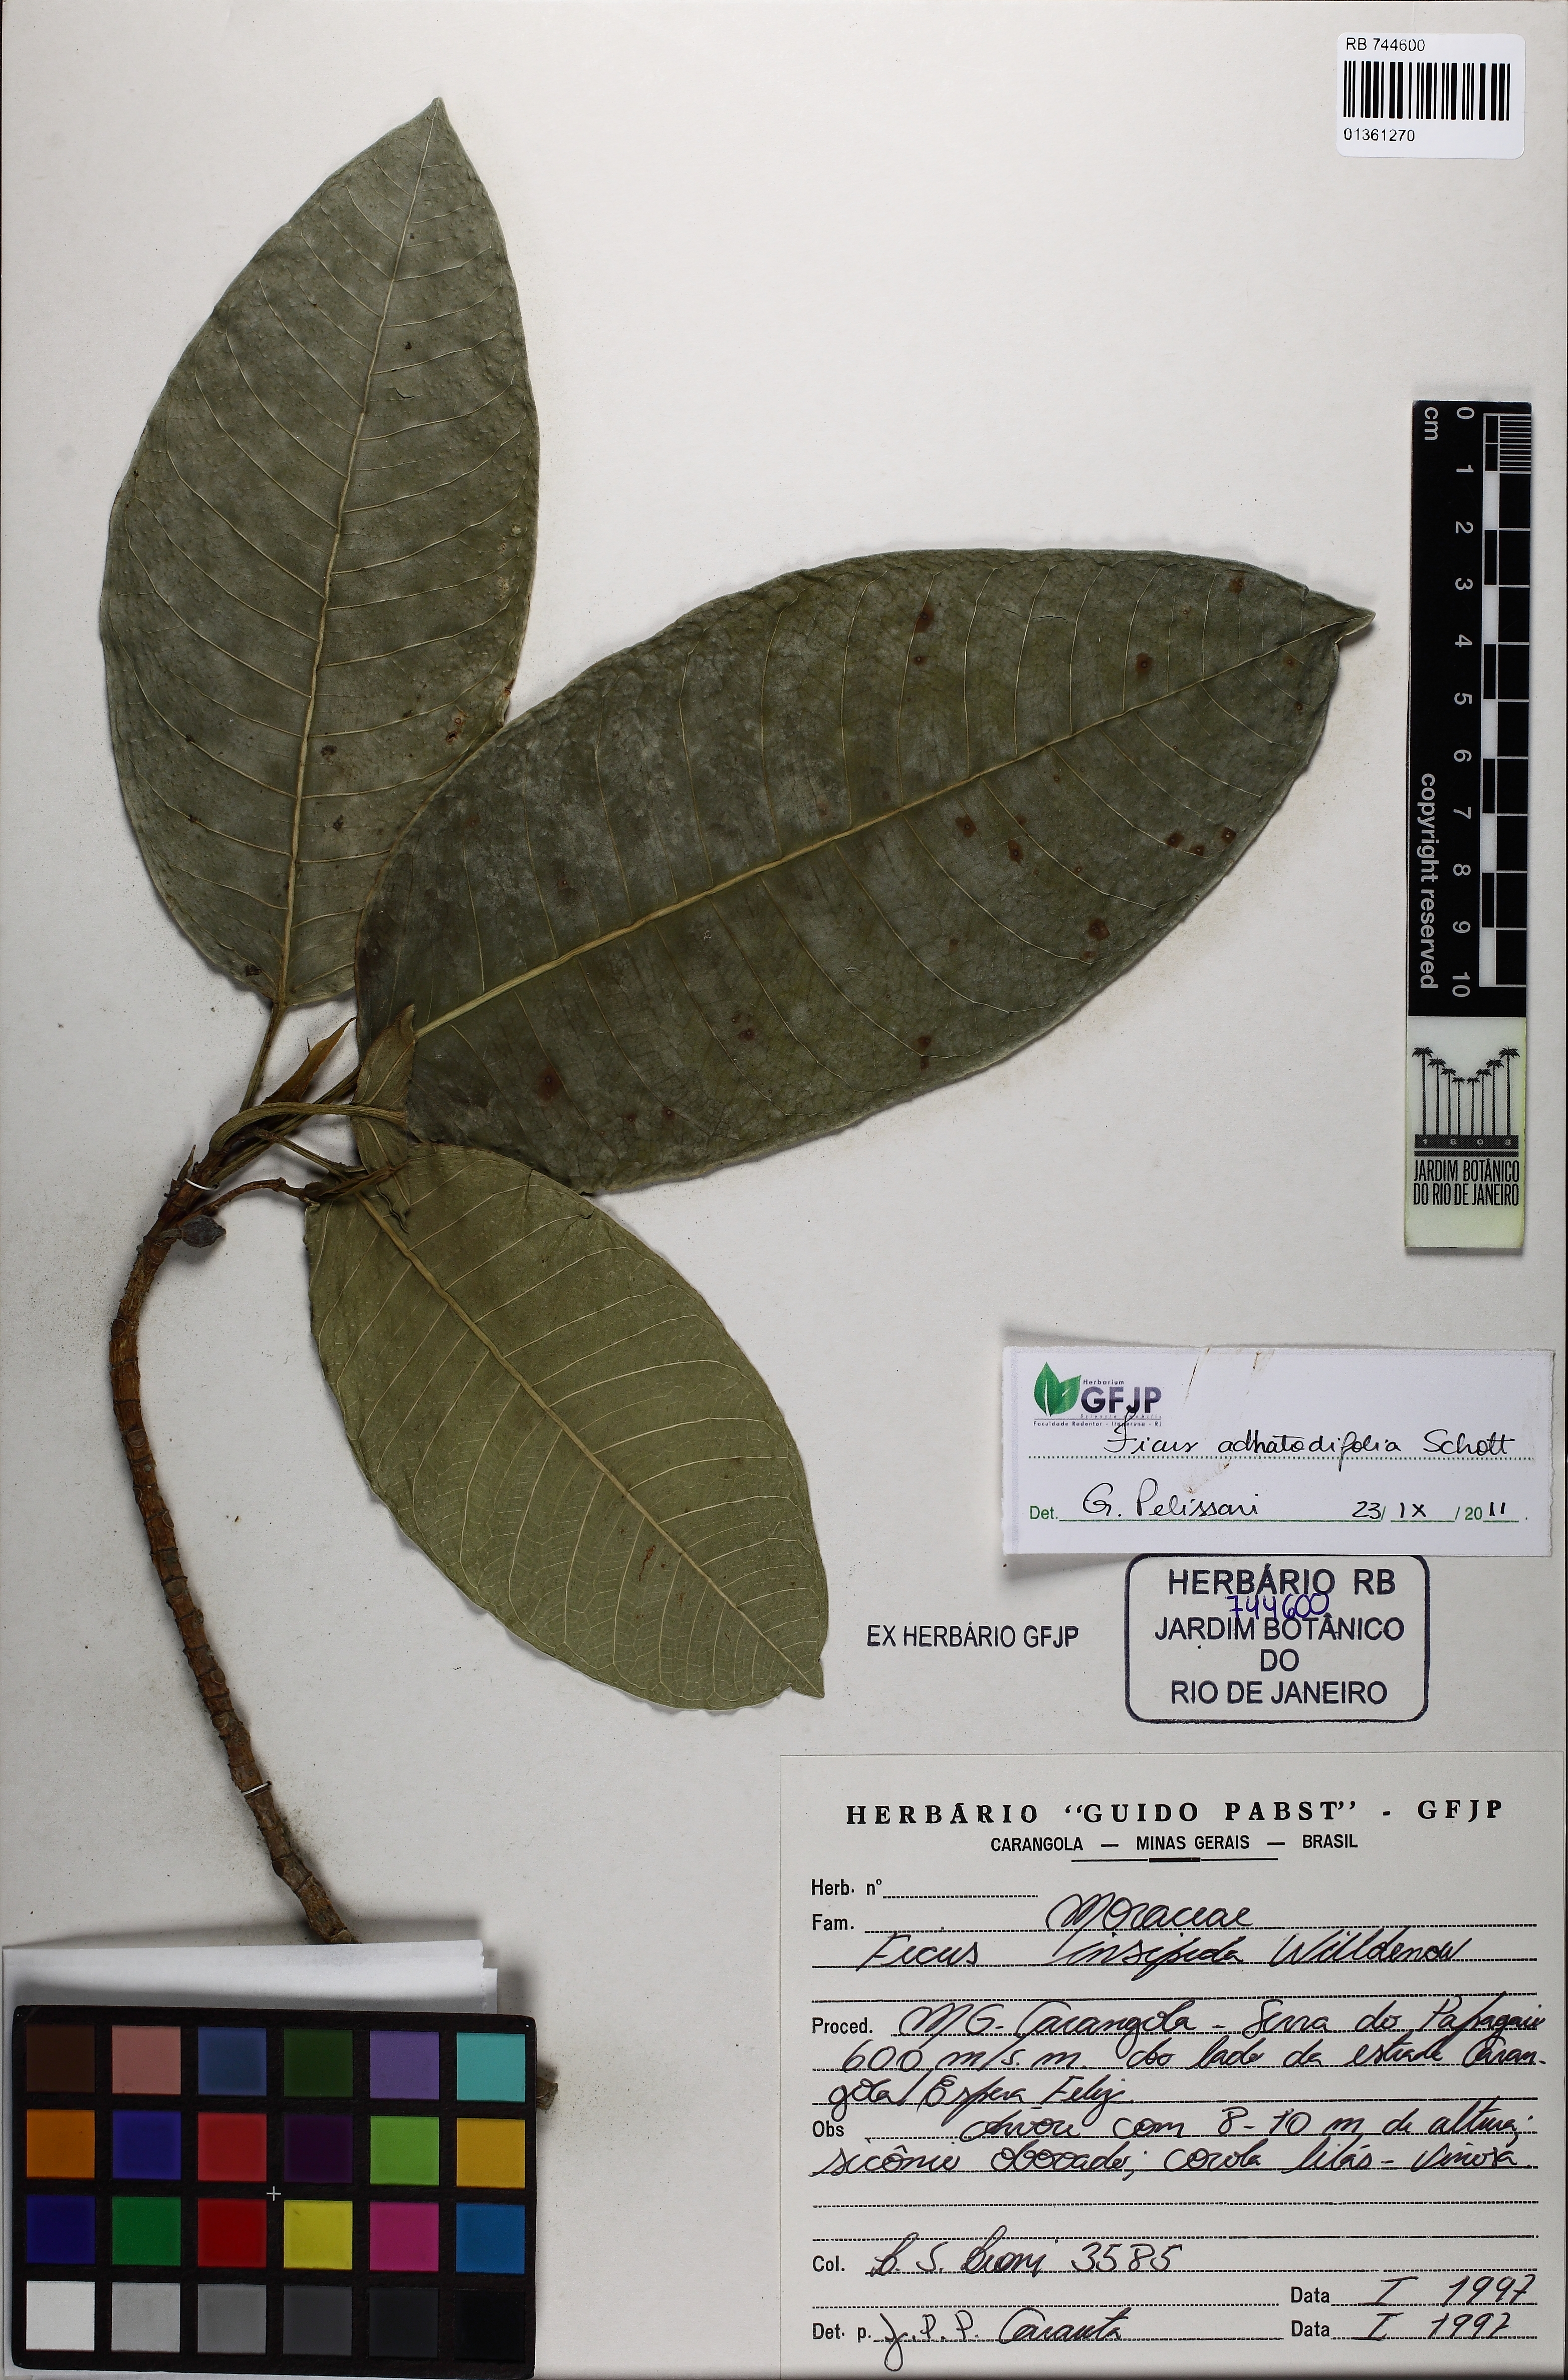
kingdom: Plantae
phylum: Tracheophyta
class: Magnoliopsida
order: Rosales
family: Moraceae
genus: Ficus
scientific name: Ficus adhatodifolia
